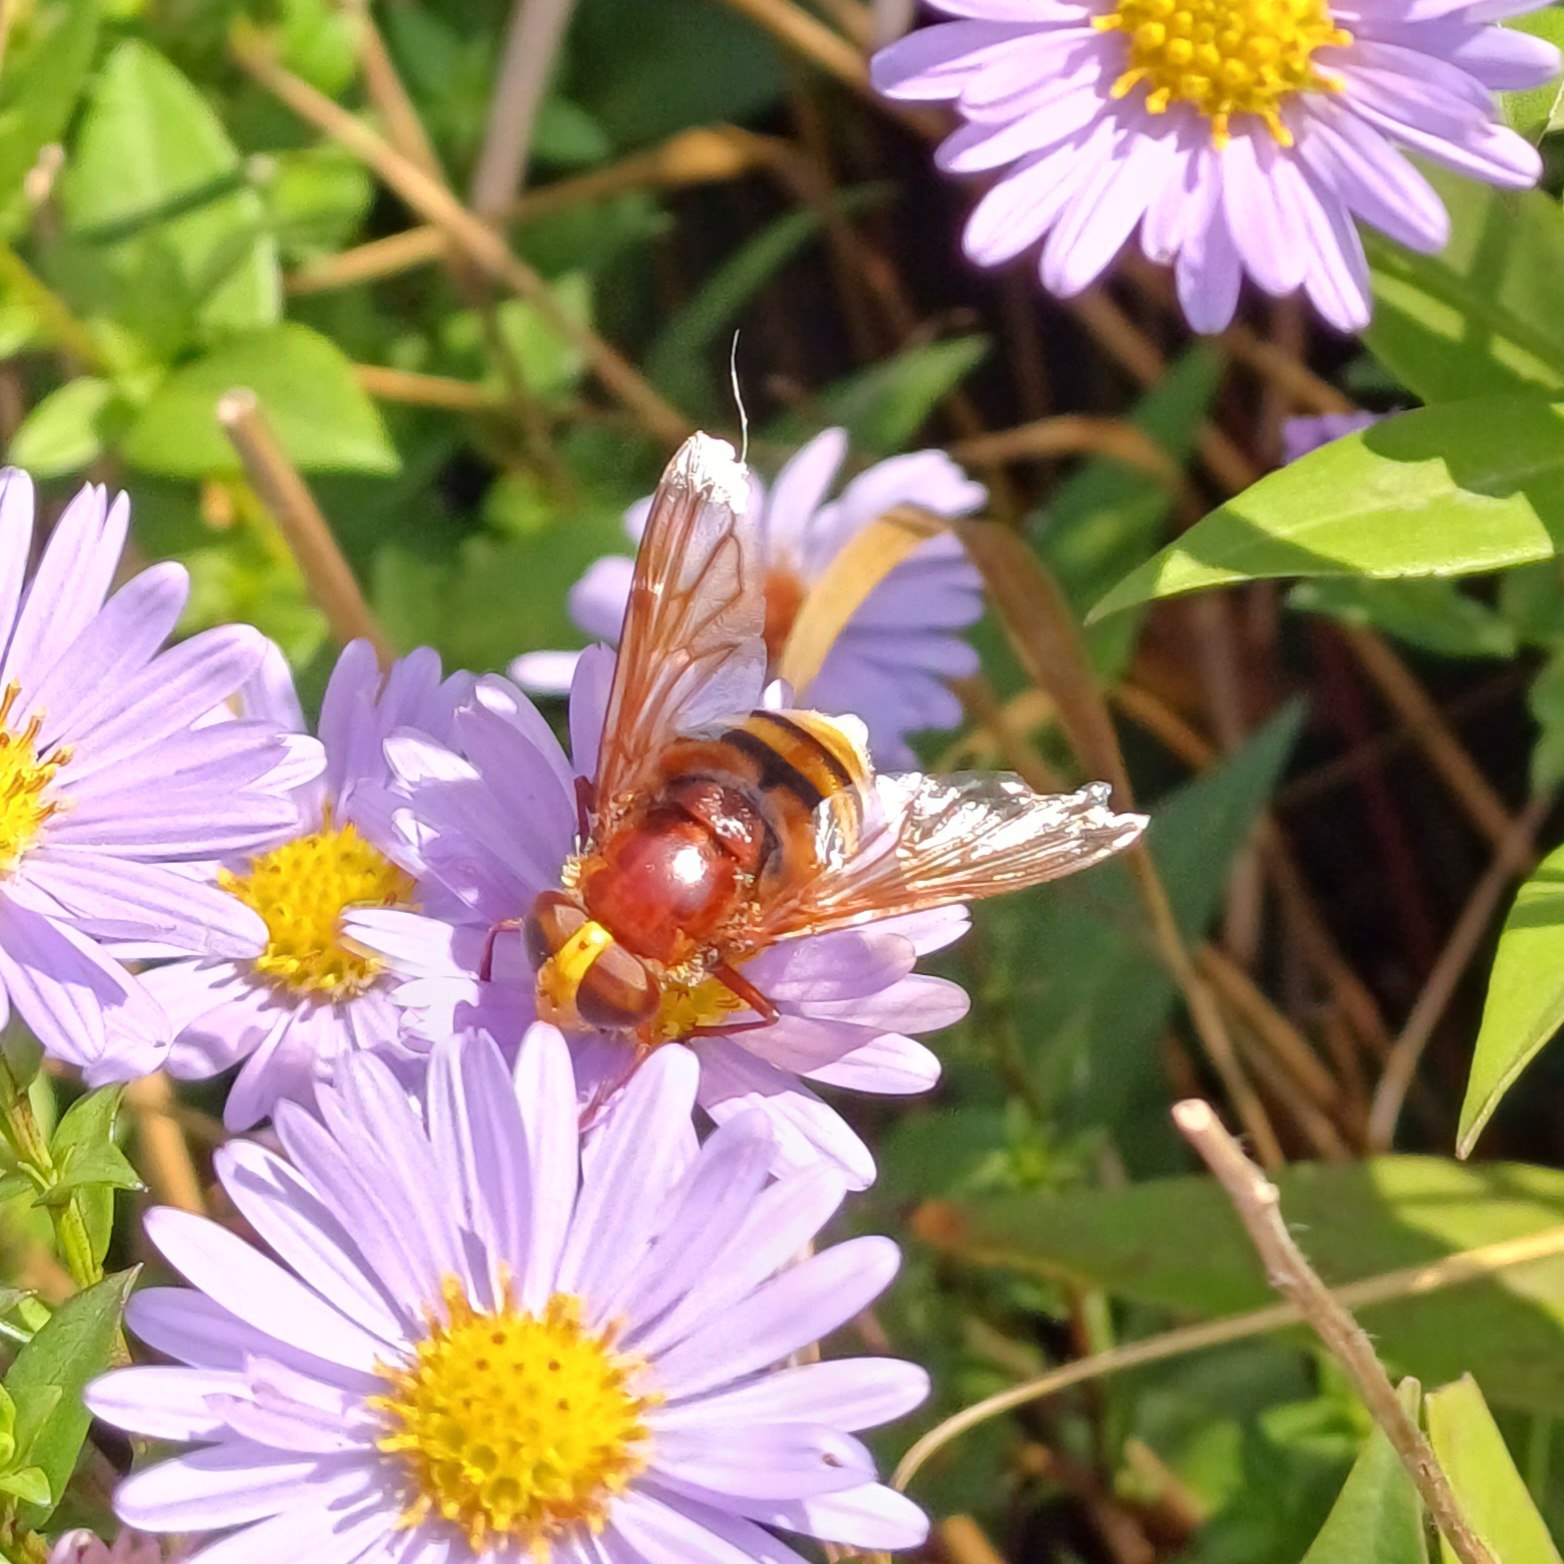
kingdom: Animalia
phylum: Arthropoda
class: Insecta
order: Diptera
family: Syrphidae
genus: Volucella
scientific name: Volucella zonaria
